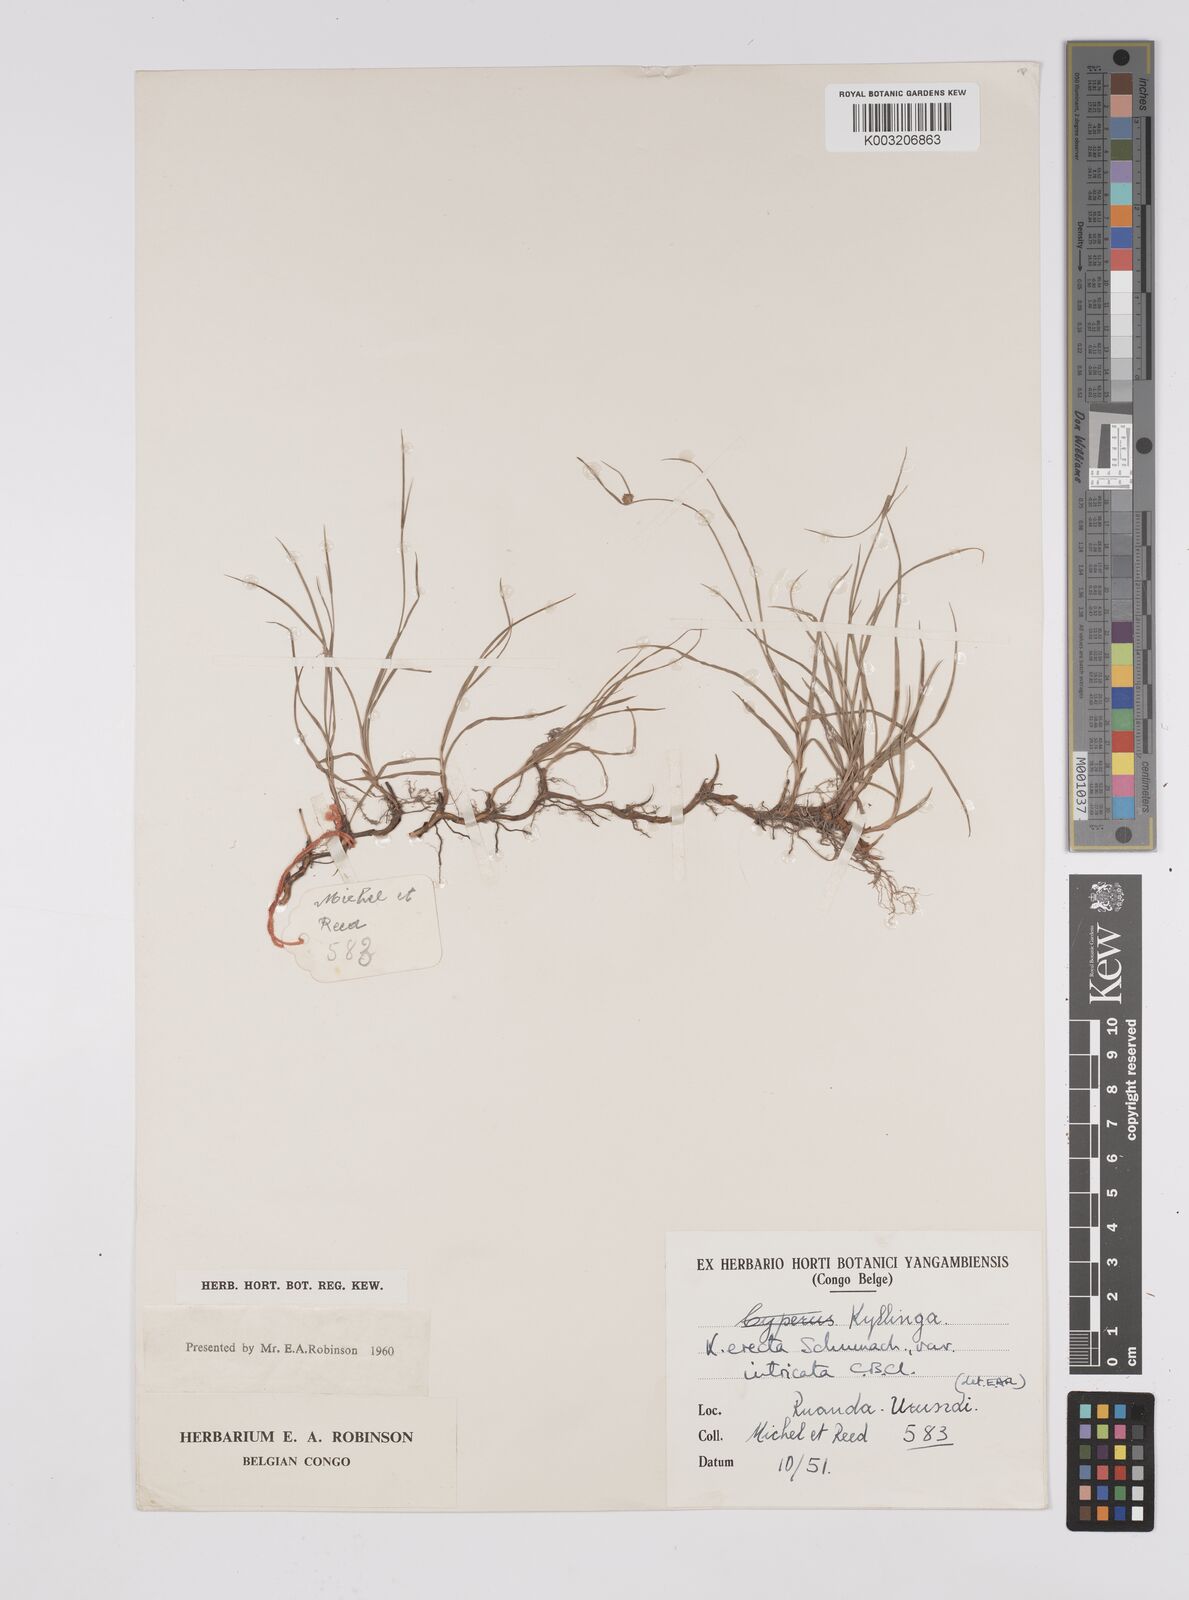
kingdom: Plantae
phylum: Tracheophyta
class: Liliopsida
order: Poales
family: Cyperaceae
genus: Cyperus
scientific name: Cyperus erectus
